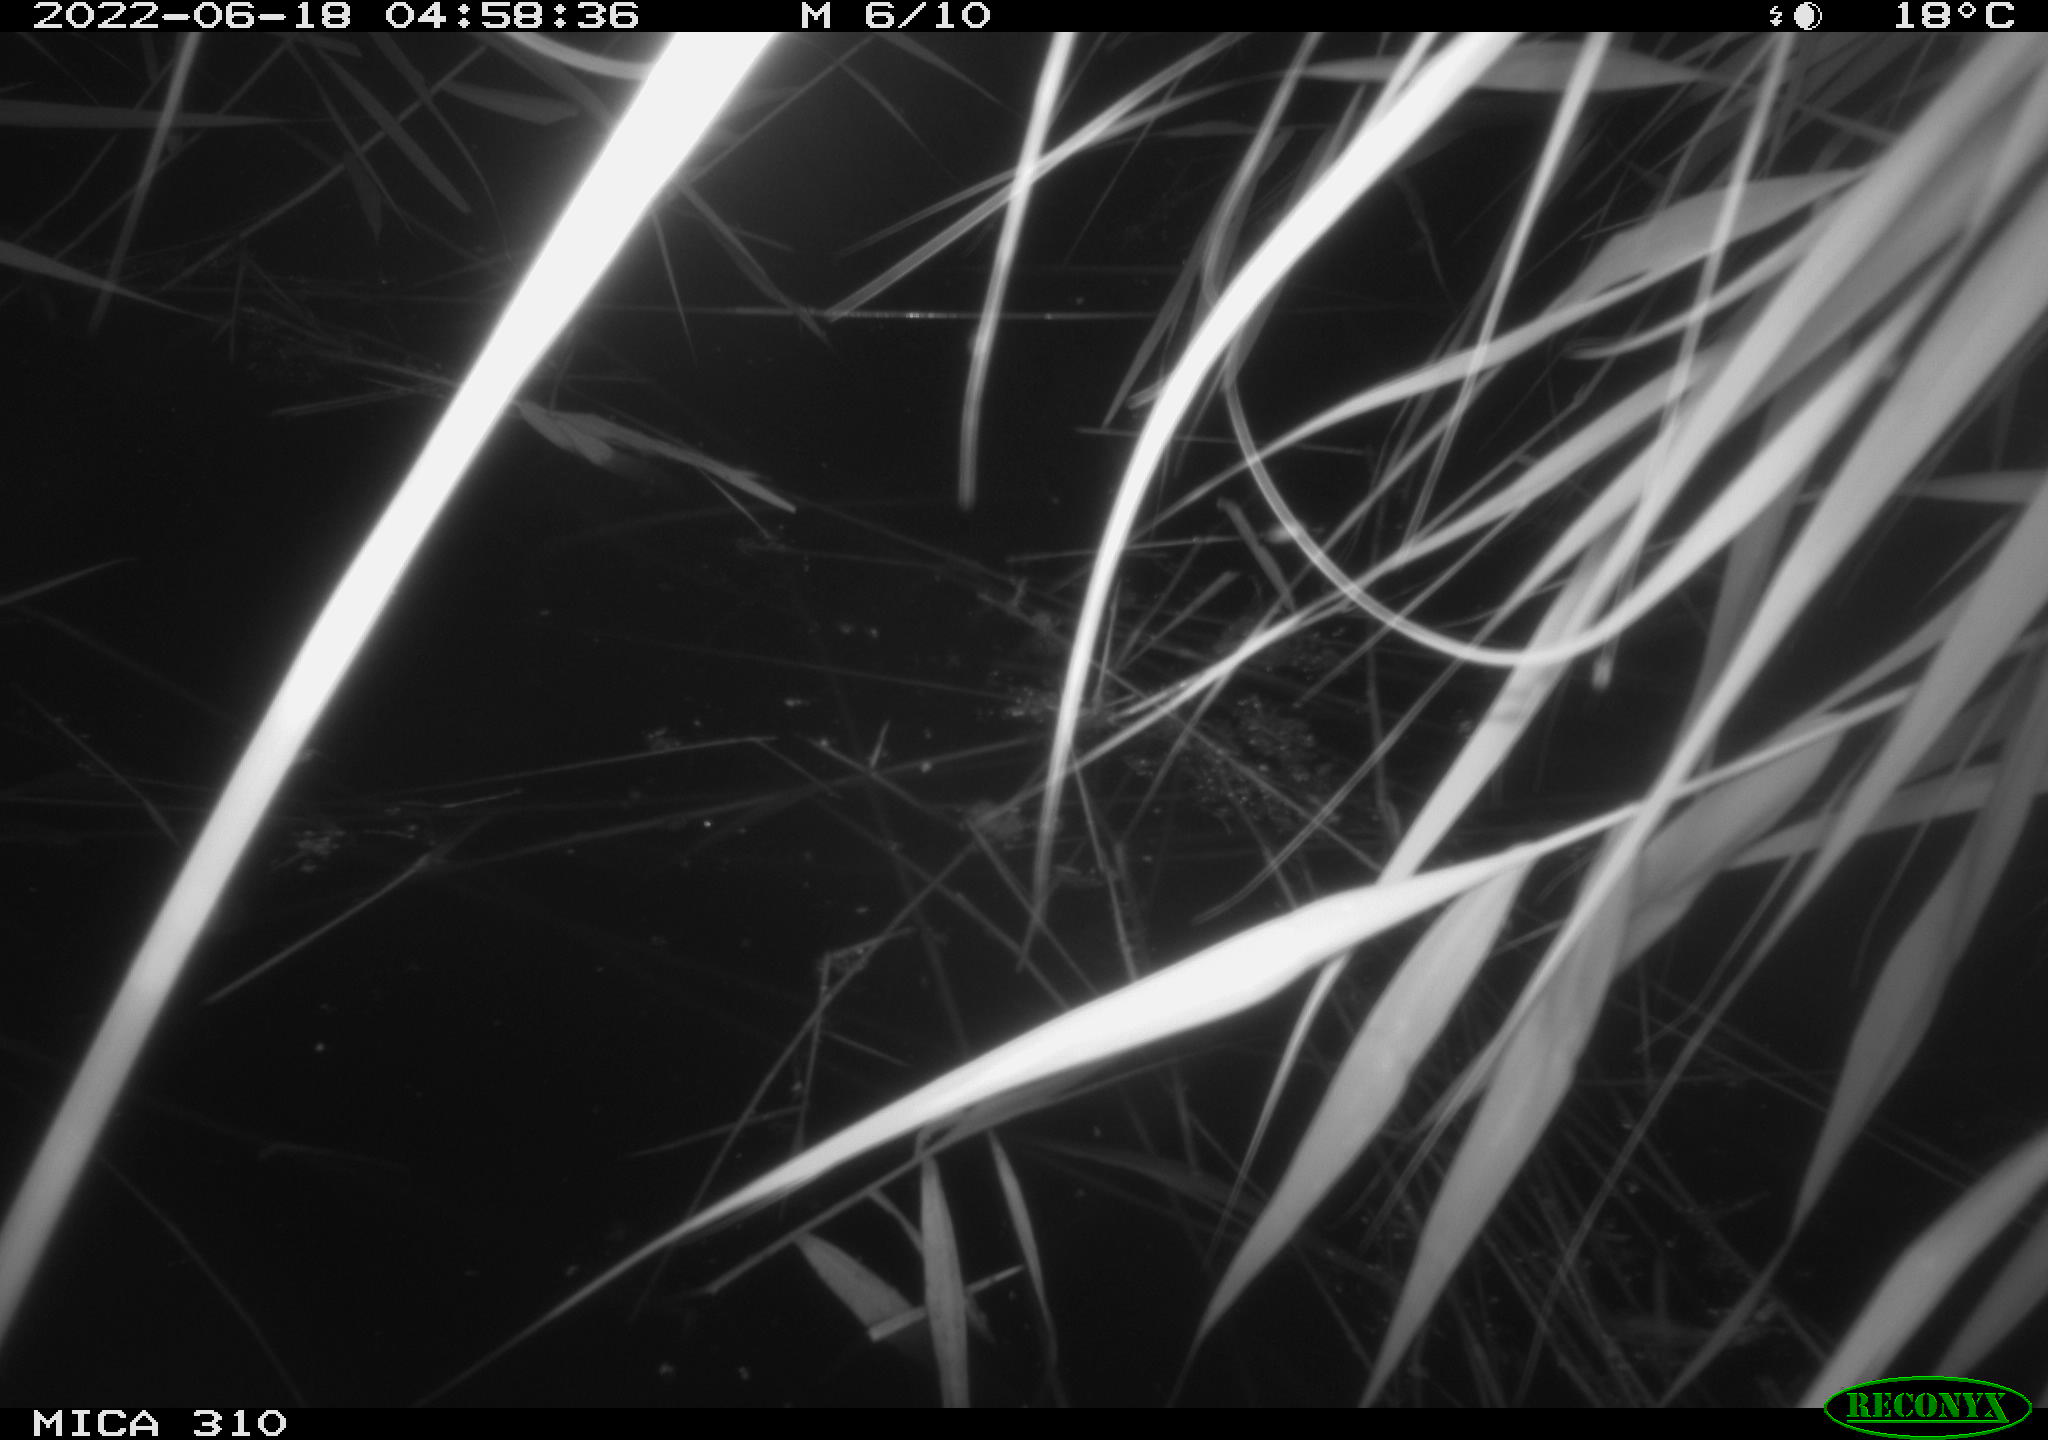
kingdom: Animalia
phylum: Chordata
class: Aves
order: Anseriformes
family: Anatidae
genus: Anas
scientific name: Anas platyrhynchos
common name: Mallard
